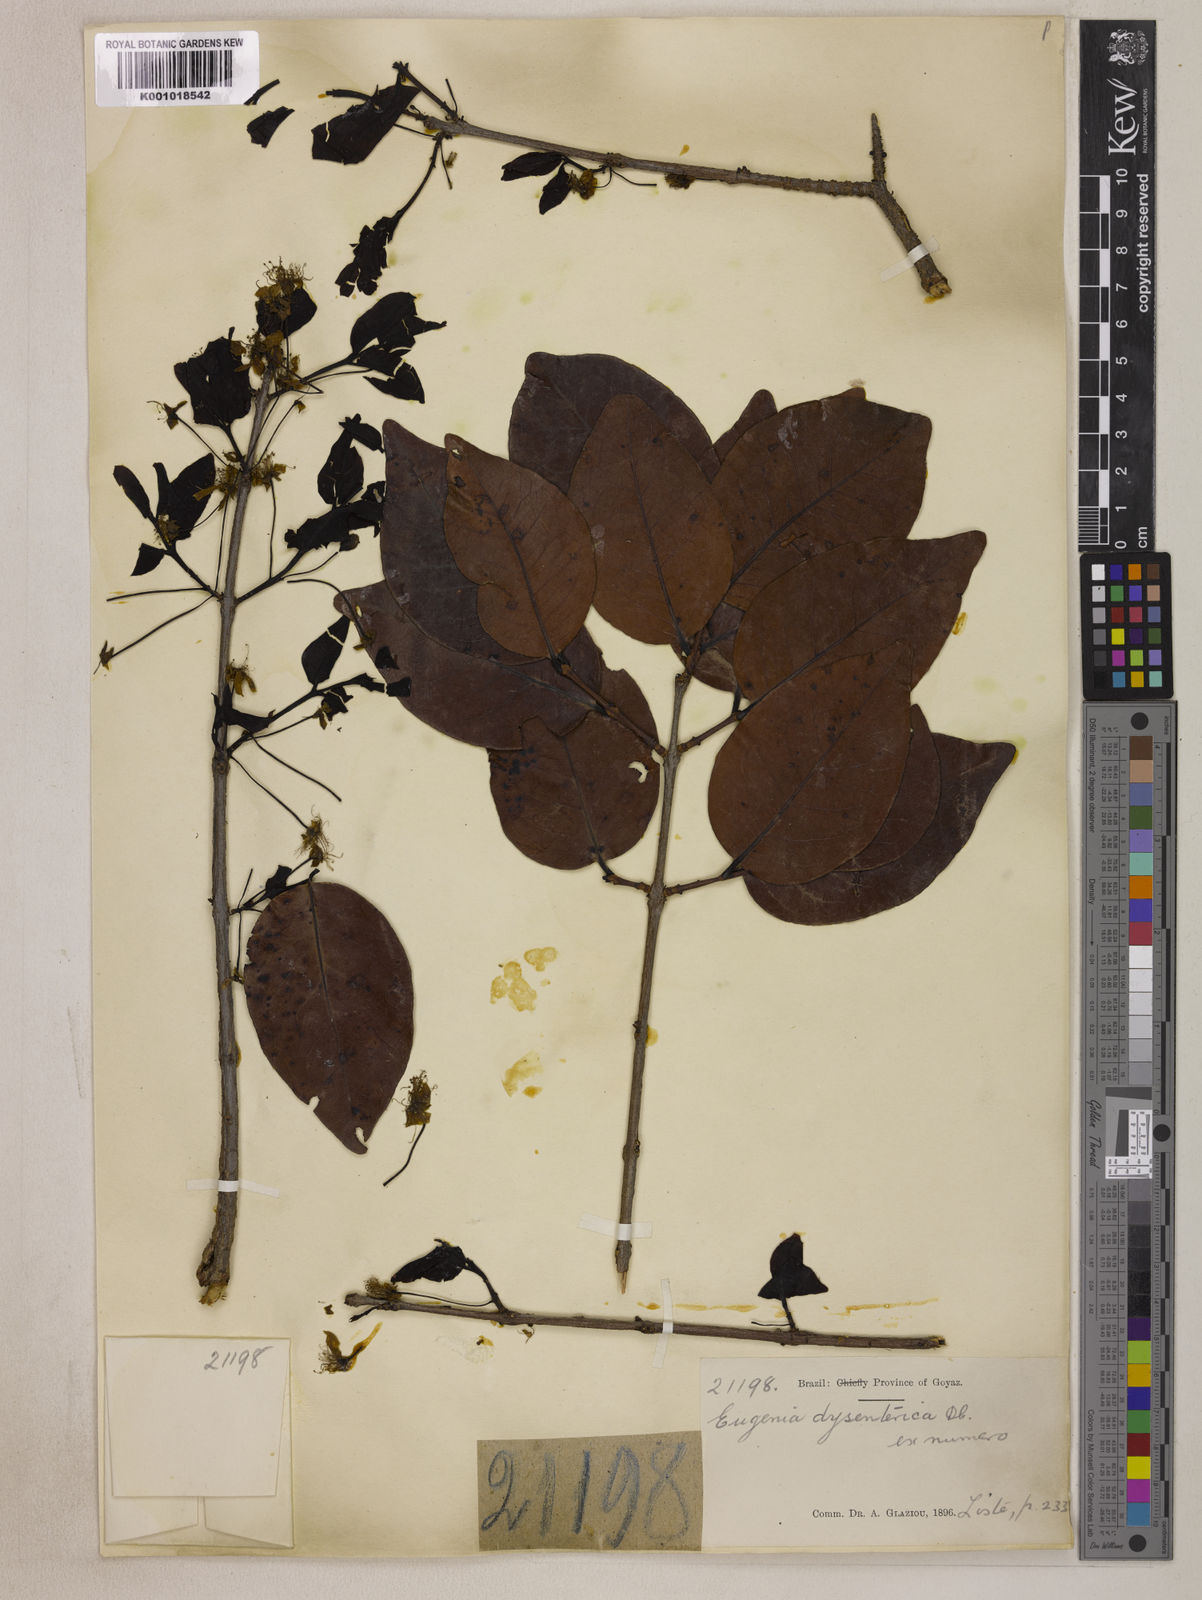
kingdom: Plantae
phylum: Tracheophyta
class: Magnoliopsida
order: Myrtales
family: Myrtaceae
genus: Eugenia
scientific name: Eugenia dysenterica
